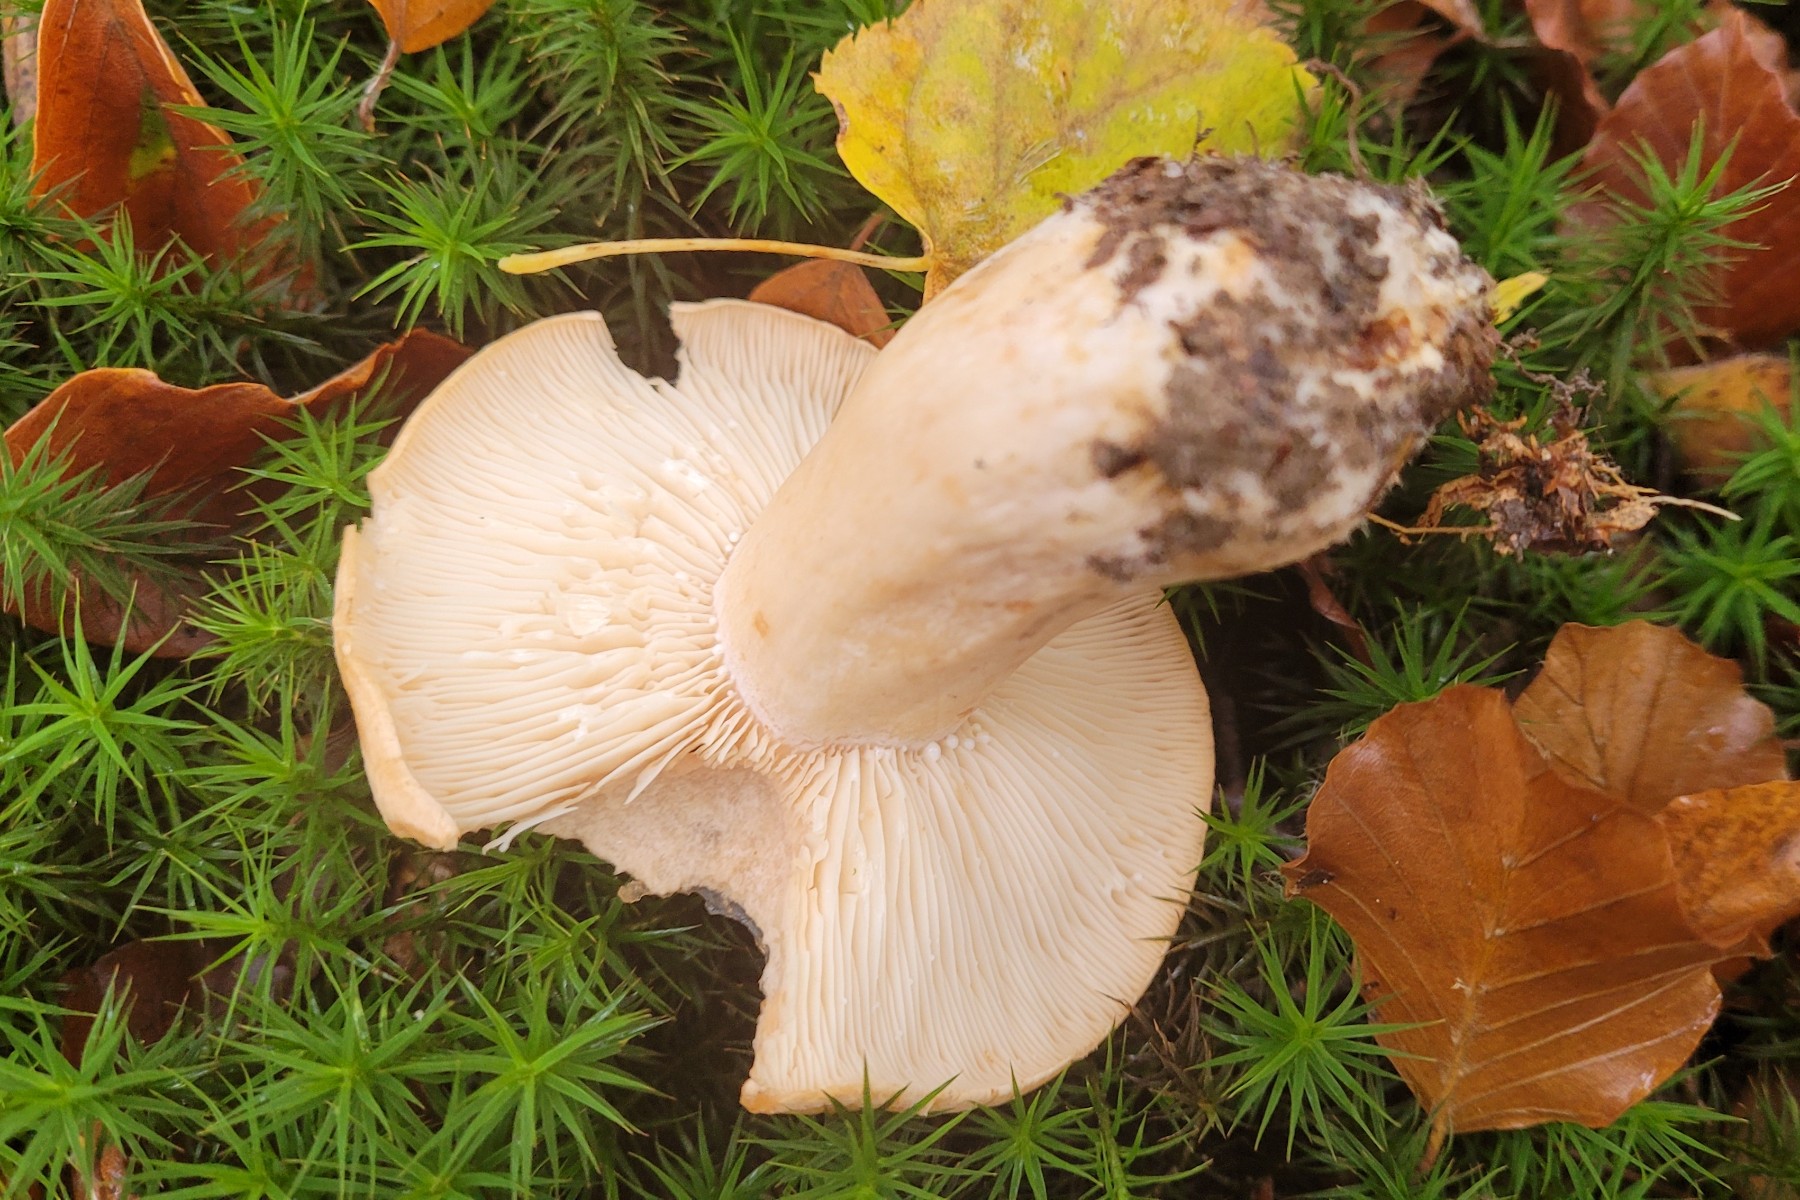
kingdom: Fungi
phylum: Basidiomycota
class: Agaricomycetes
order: Russulales
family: Russulaceae
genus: Lactarius
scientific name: Lactarius pallidus
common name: bleg mælkehat
